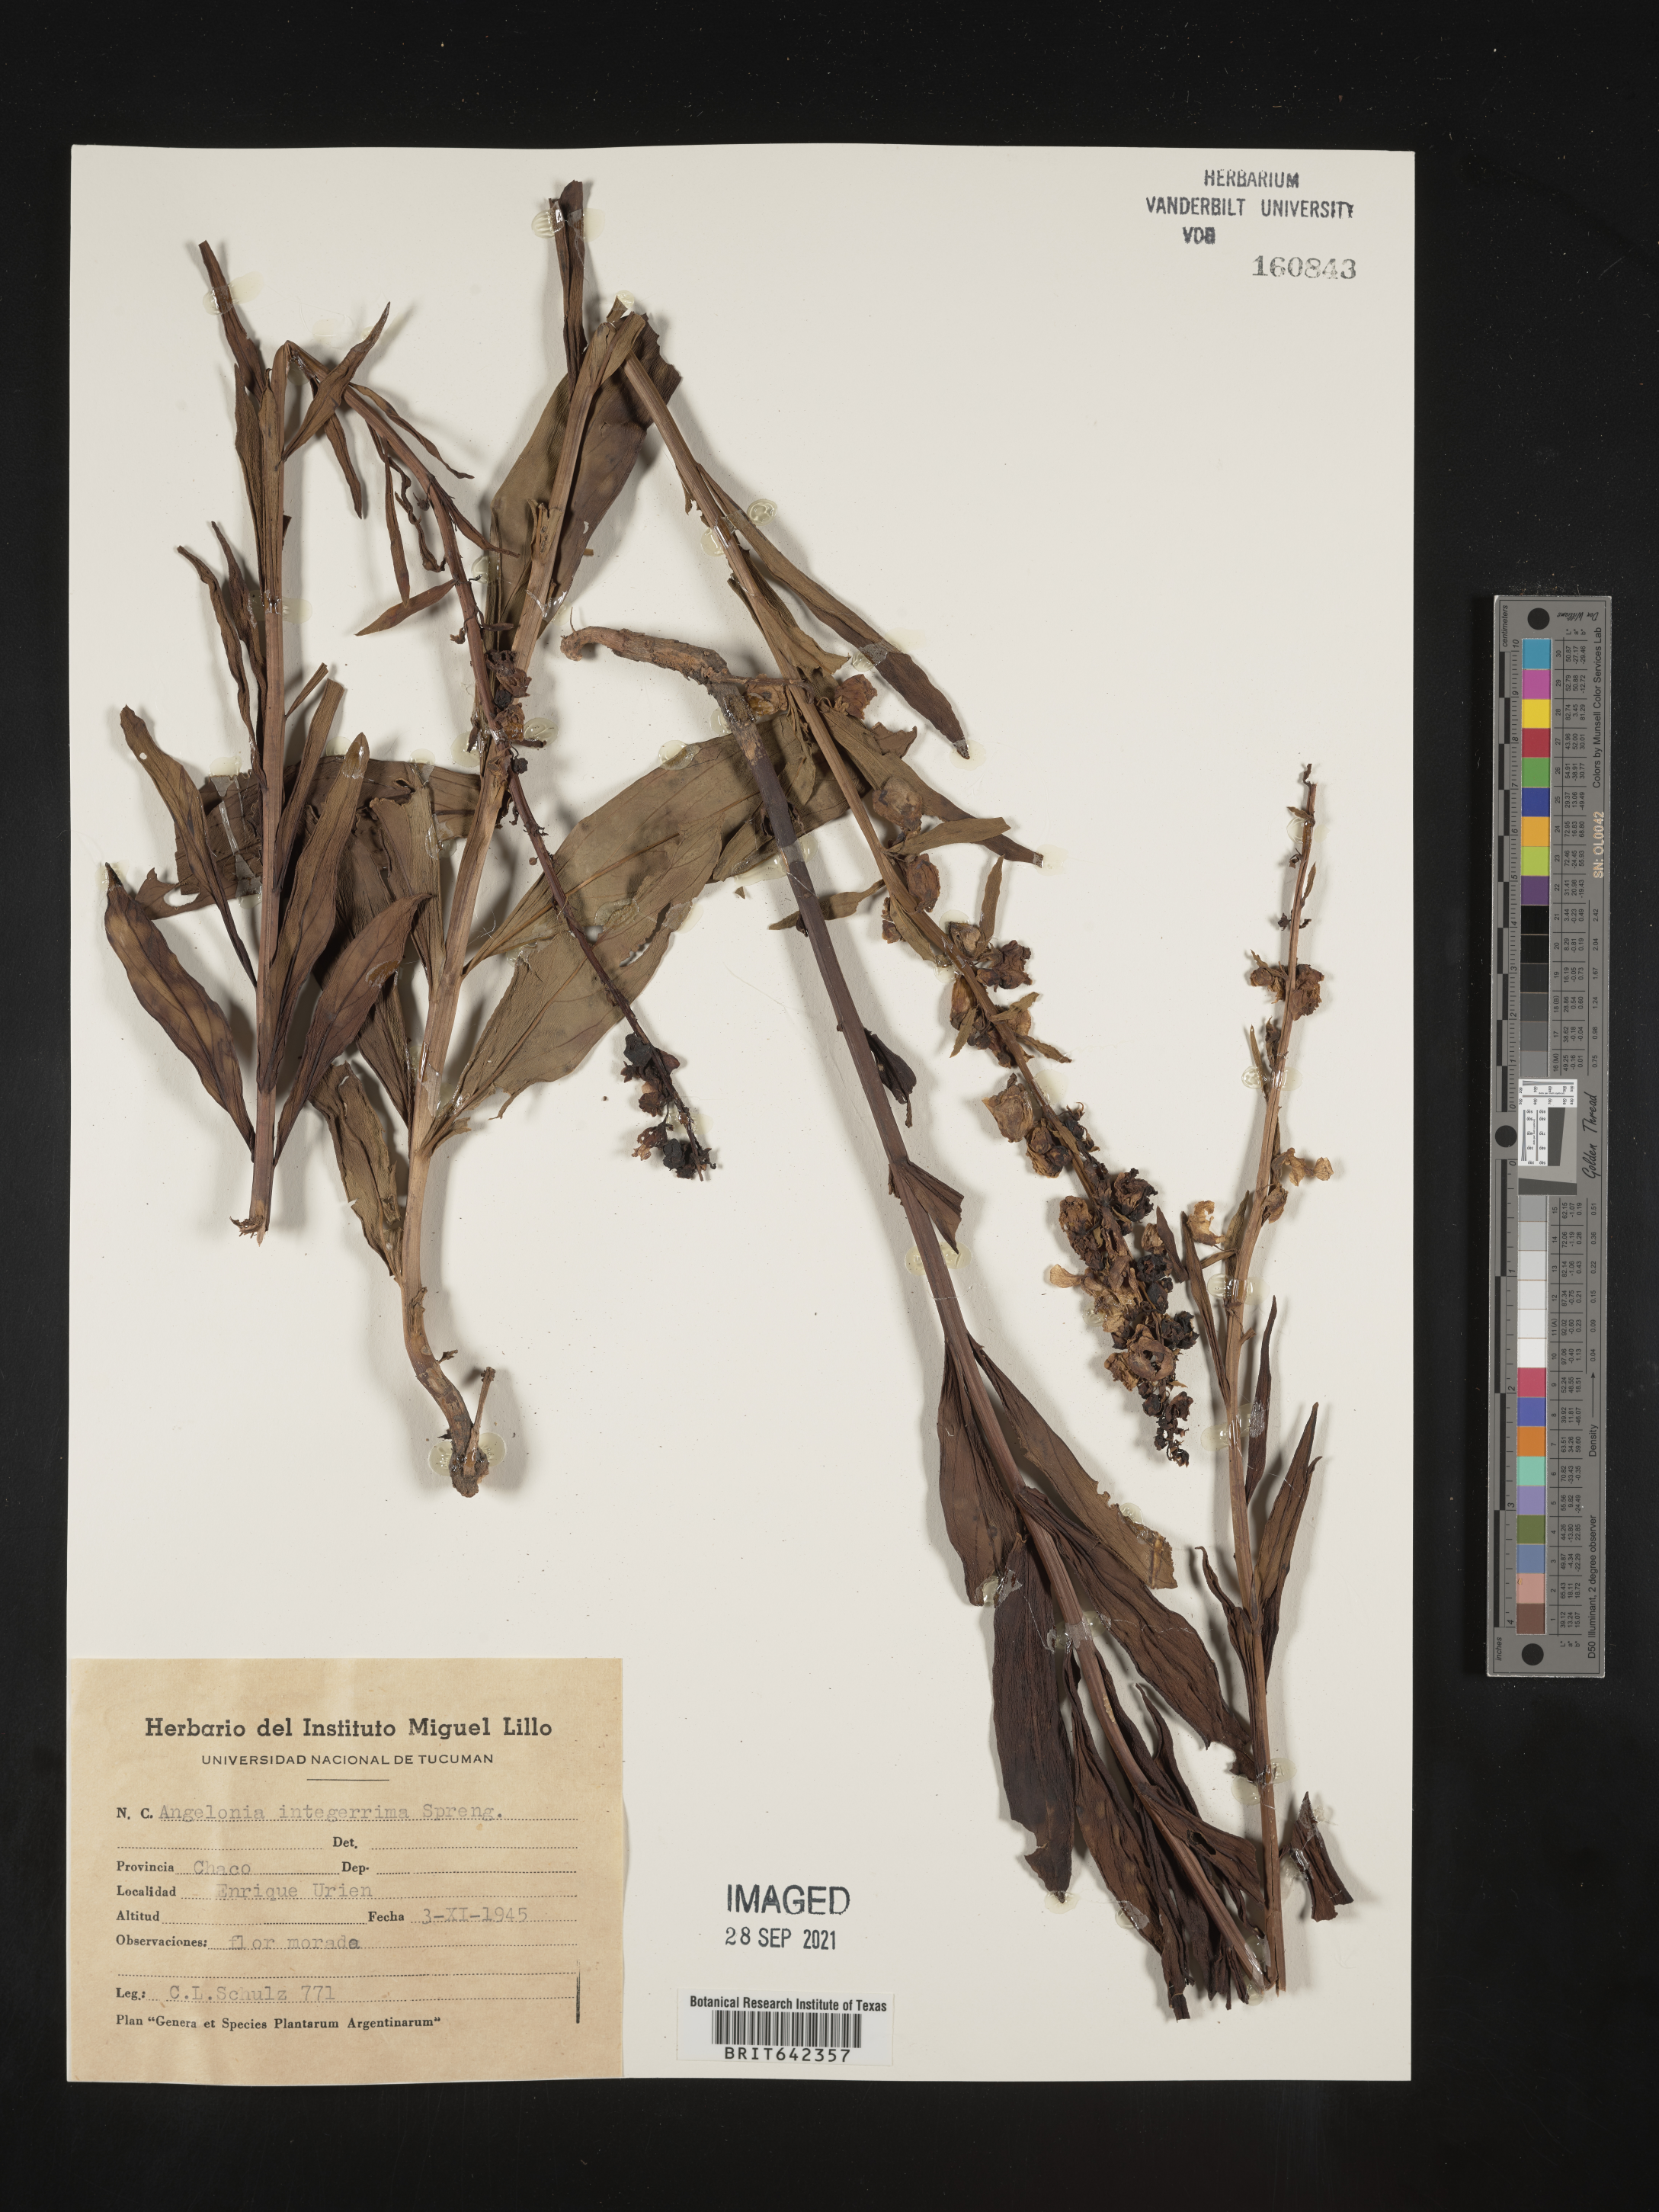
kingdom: Plantae
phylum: Tracheophyta
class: Magnoliopsida
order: Lamiales
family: Plantaginaceae
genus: Angelonia
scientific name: Angelonia
